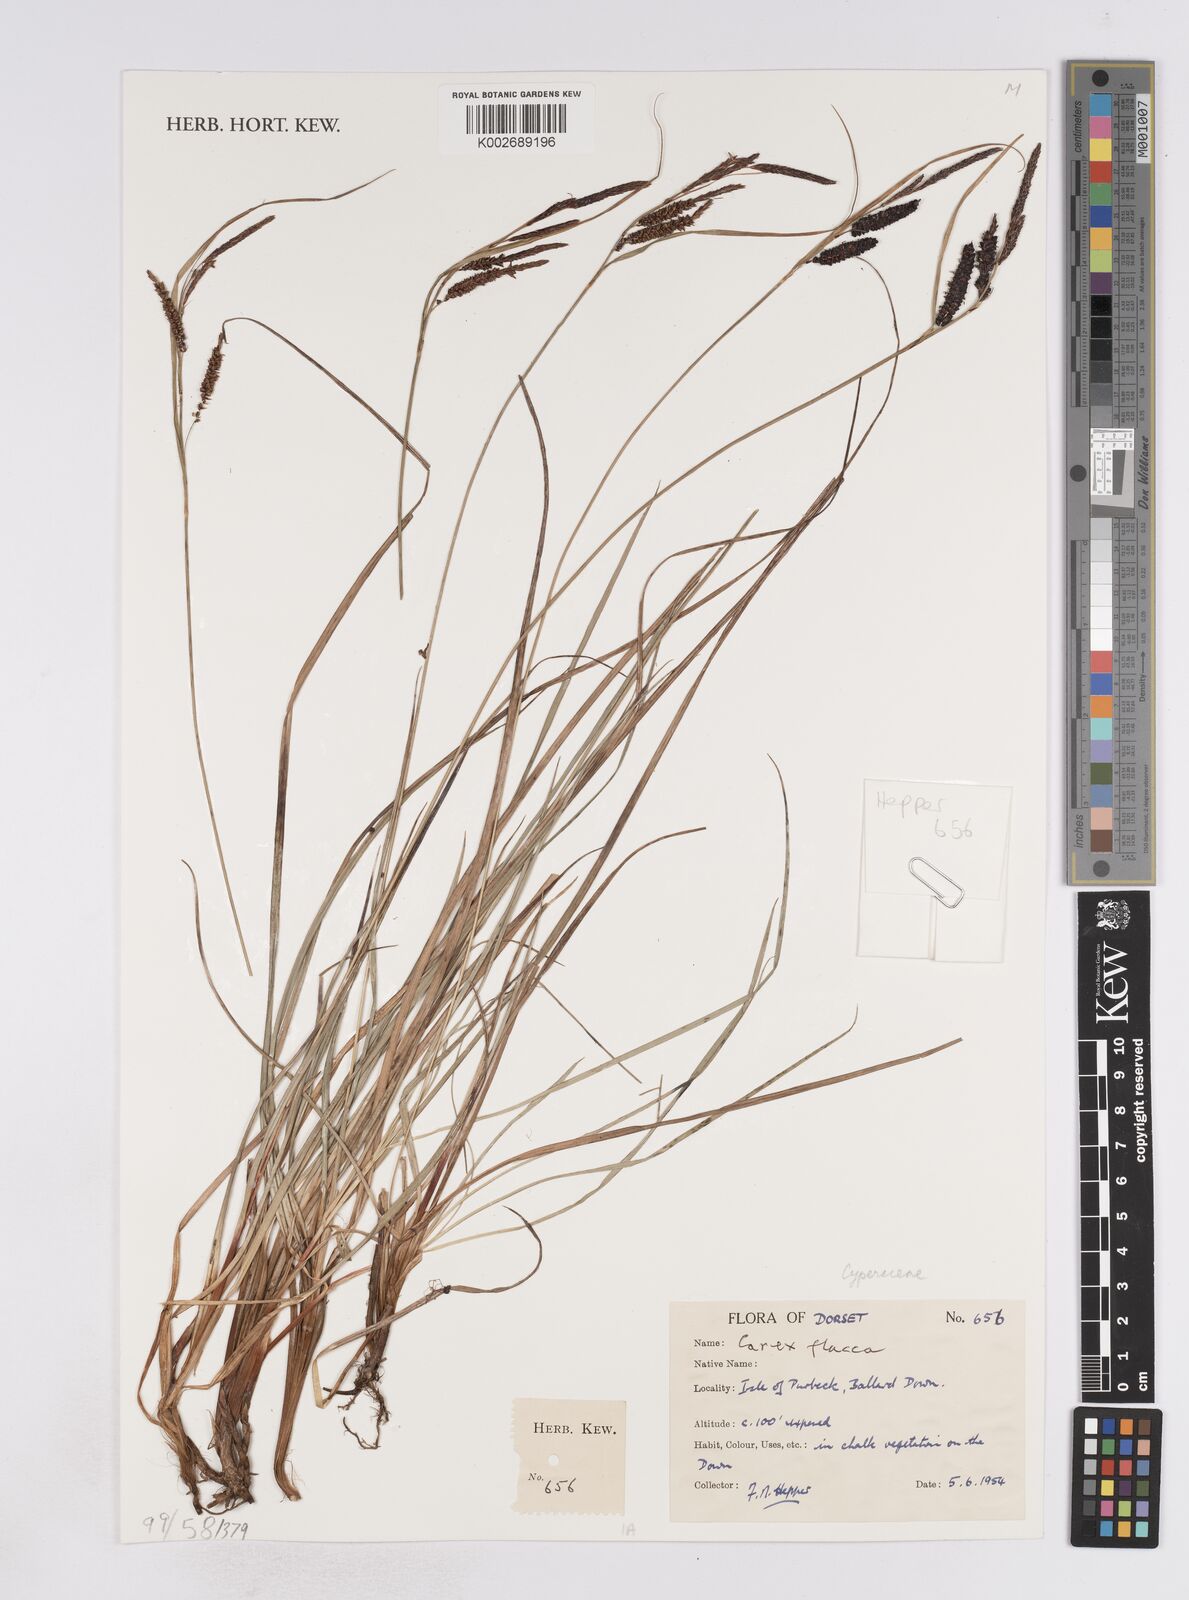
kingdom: Plantae
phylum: Tracheophyta
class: Liliopsida
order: Poales
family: Cyperaceae
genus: Carex
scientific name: Carex flacca
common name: Glaucous sedge
